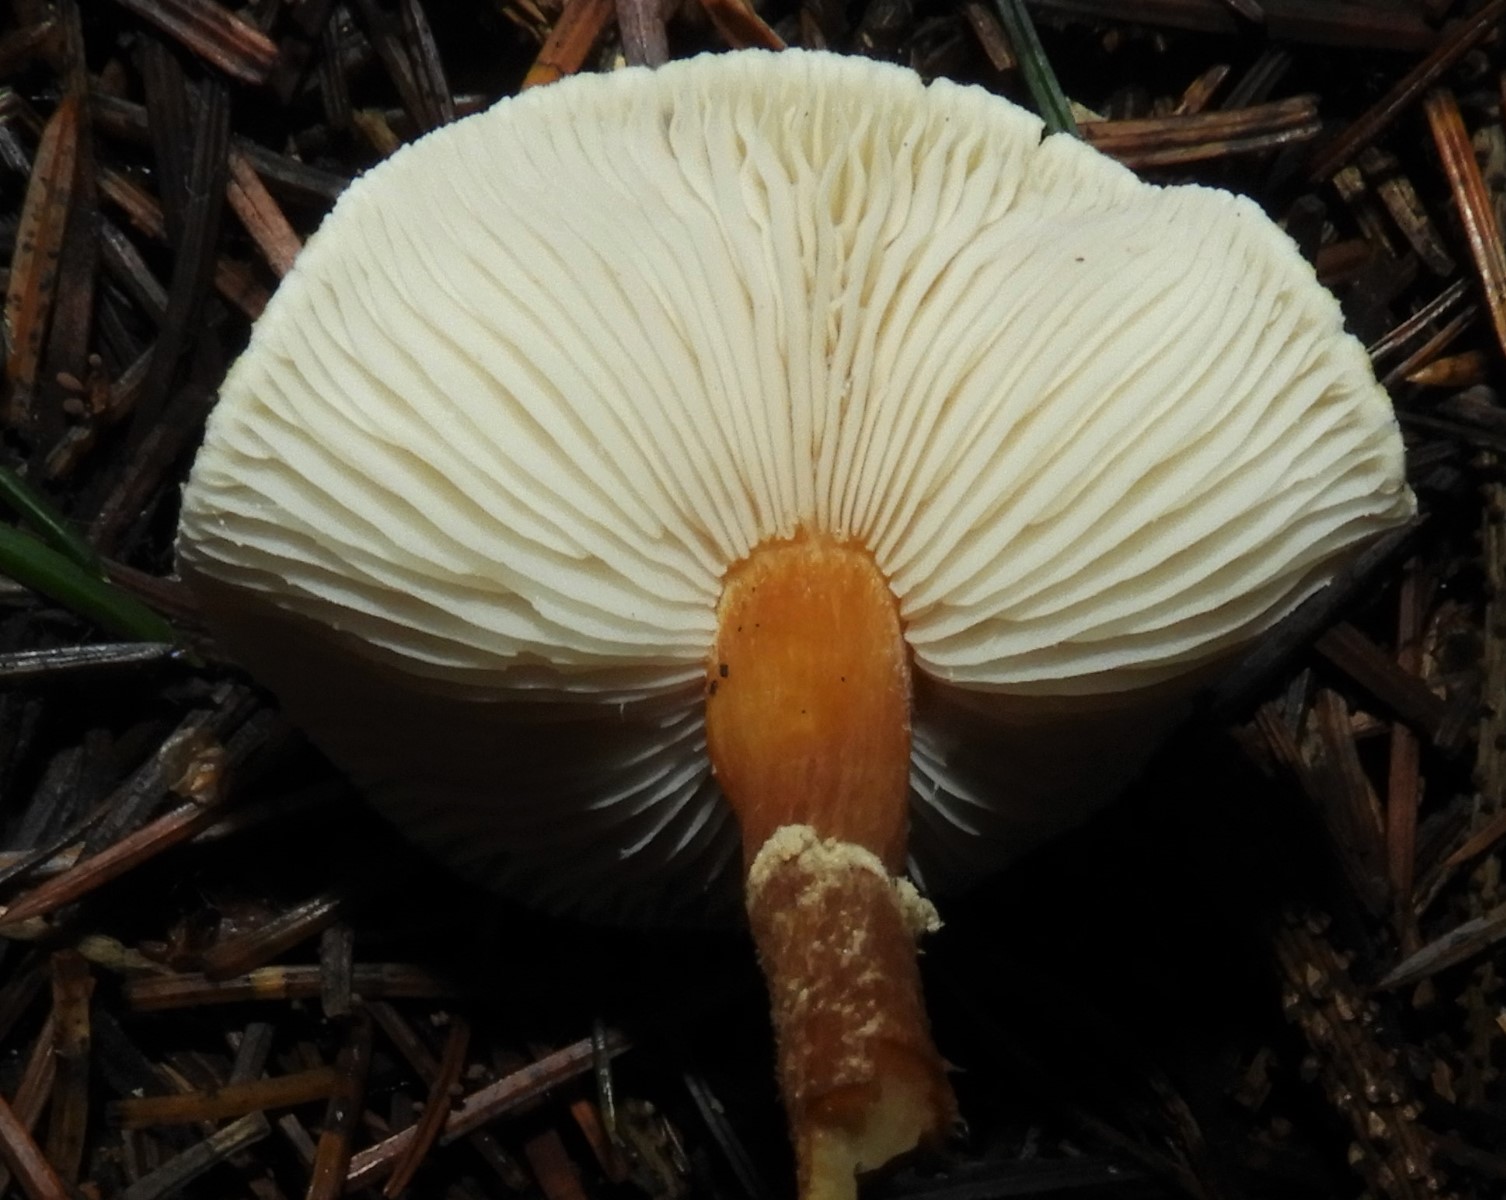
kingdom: Fungi
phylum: Basidiomycota
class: Agaricomycetes
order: Agaricales
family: Tricholomataceae
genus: Cystoderma
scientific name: Cystoderma
